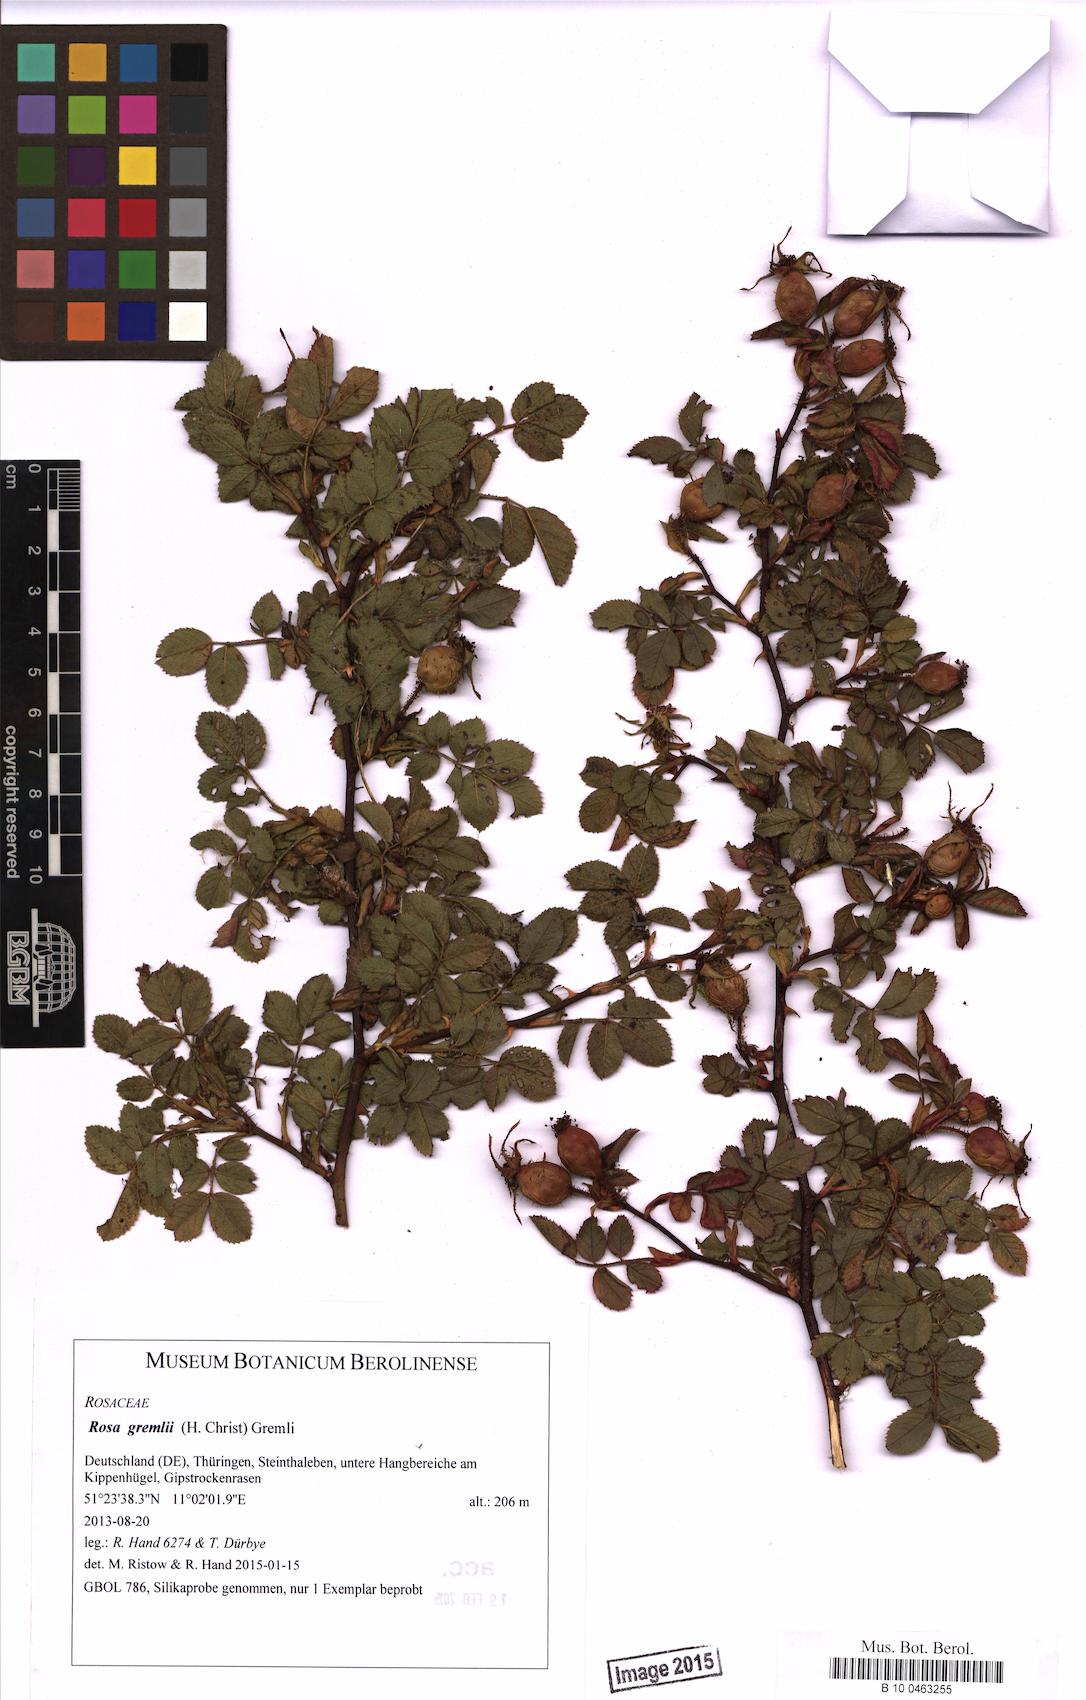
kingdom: Plantae
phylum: Tracheophyta
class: Magnoliopsida
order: Rosales
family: Rosaceae
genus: Rosa
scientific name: Rosa rubiginosa
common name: Sweet-briar
